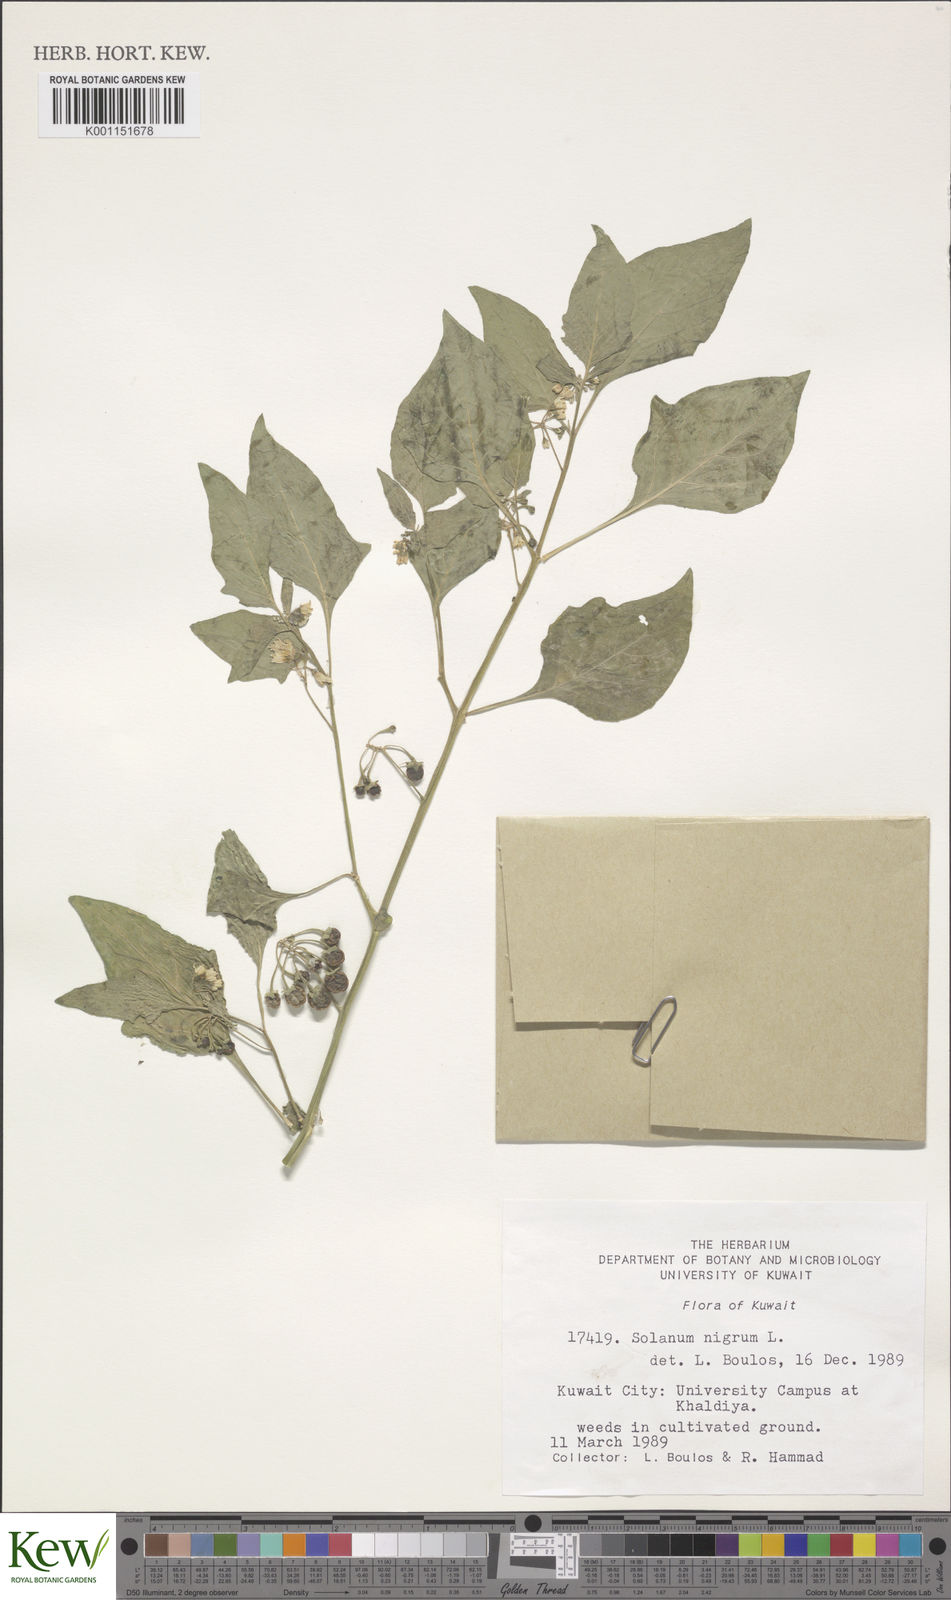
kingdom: Plantae
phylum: Tracheophyta
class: Magnoliopsida
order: Solanales
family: Solanaceae
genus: Solanum
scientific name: Solanum nigrum
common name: Black nightshade
